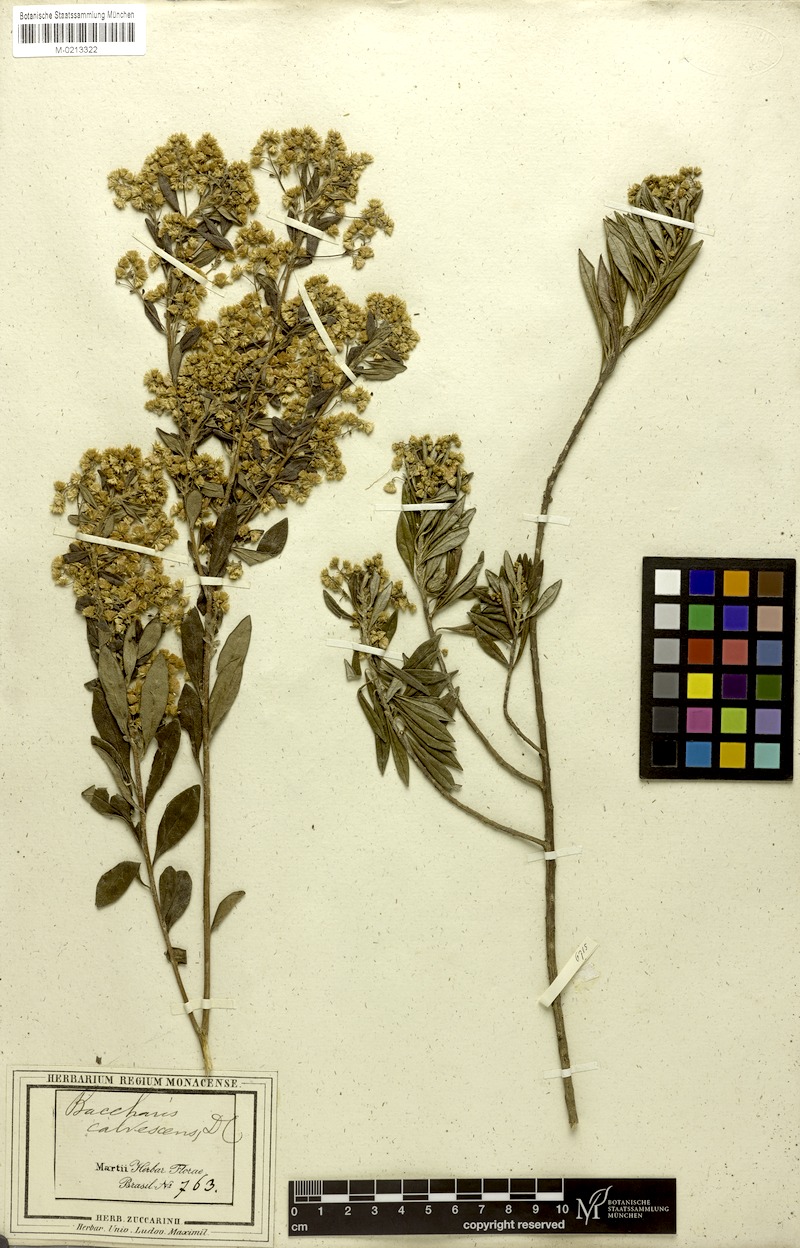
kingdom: Plantae
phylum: Tracheophyta
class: Magnoliopsida
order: Asterales
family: Asteraceae
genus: Baccharis
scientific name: Baccharis calvescens
